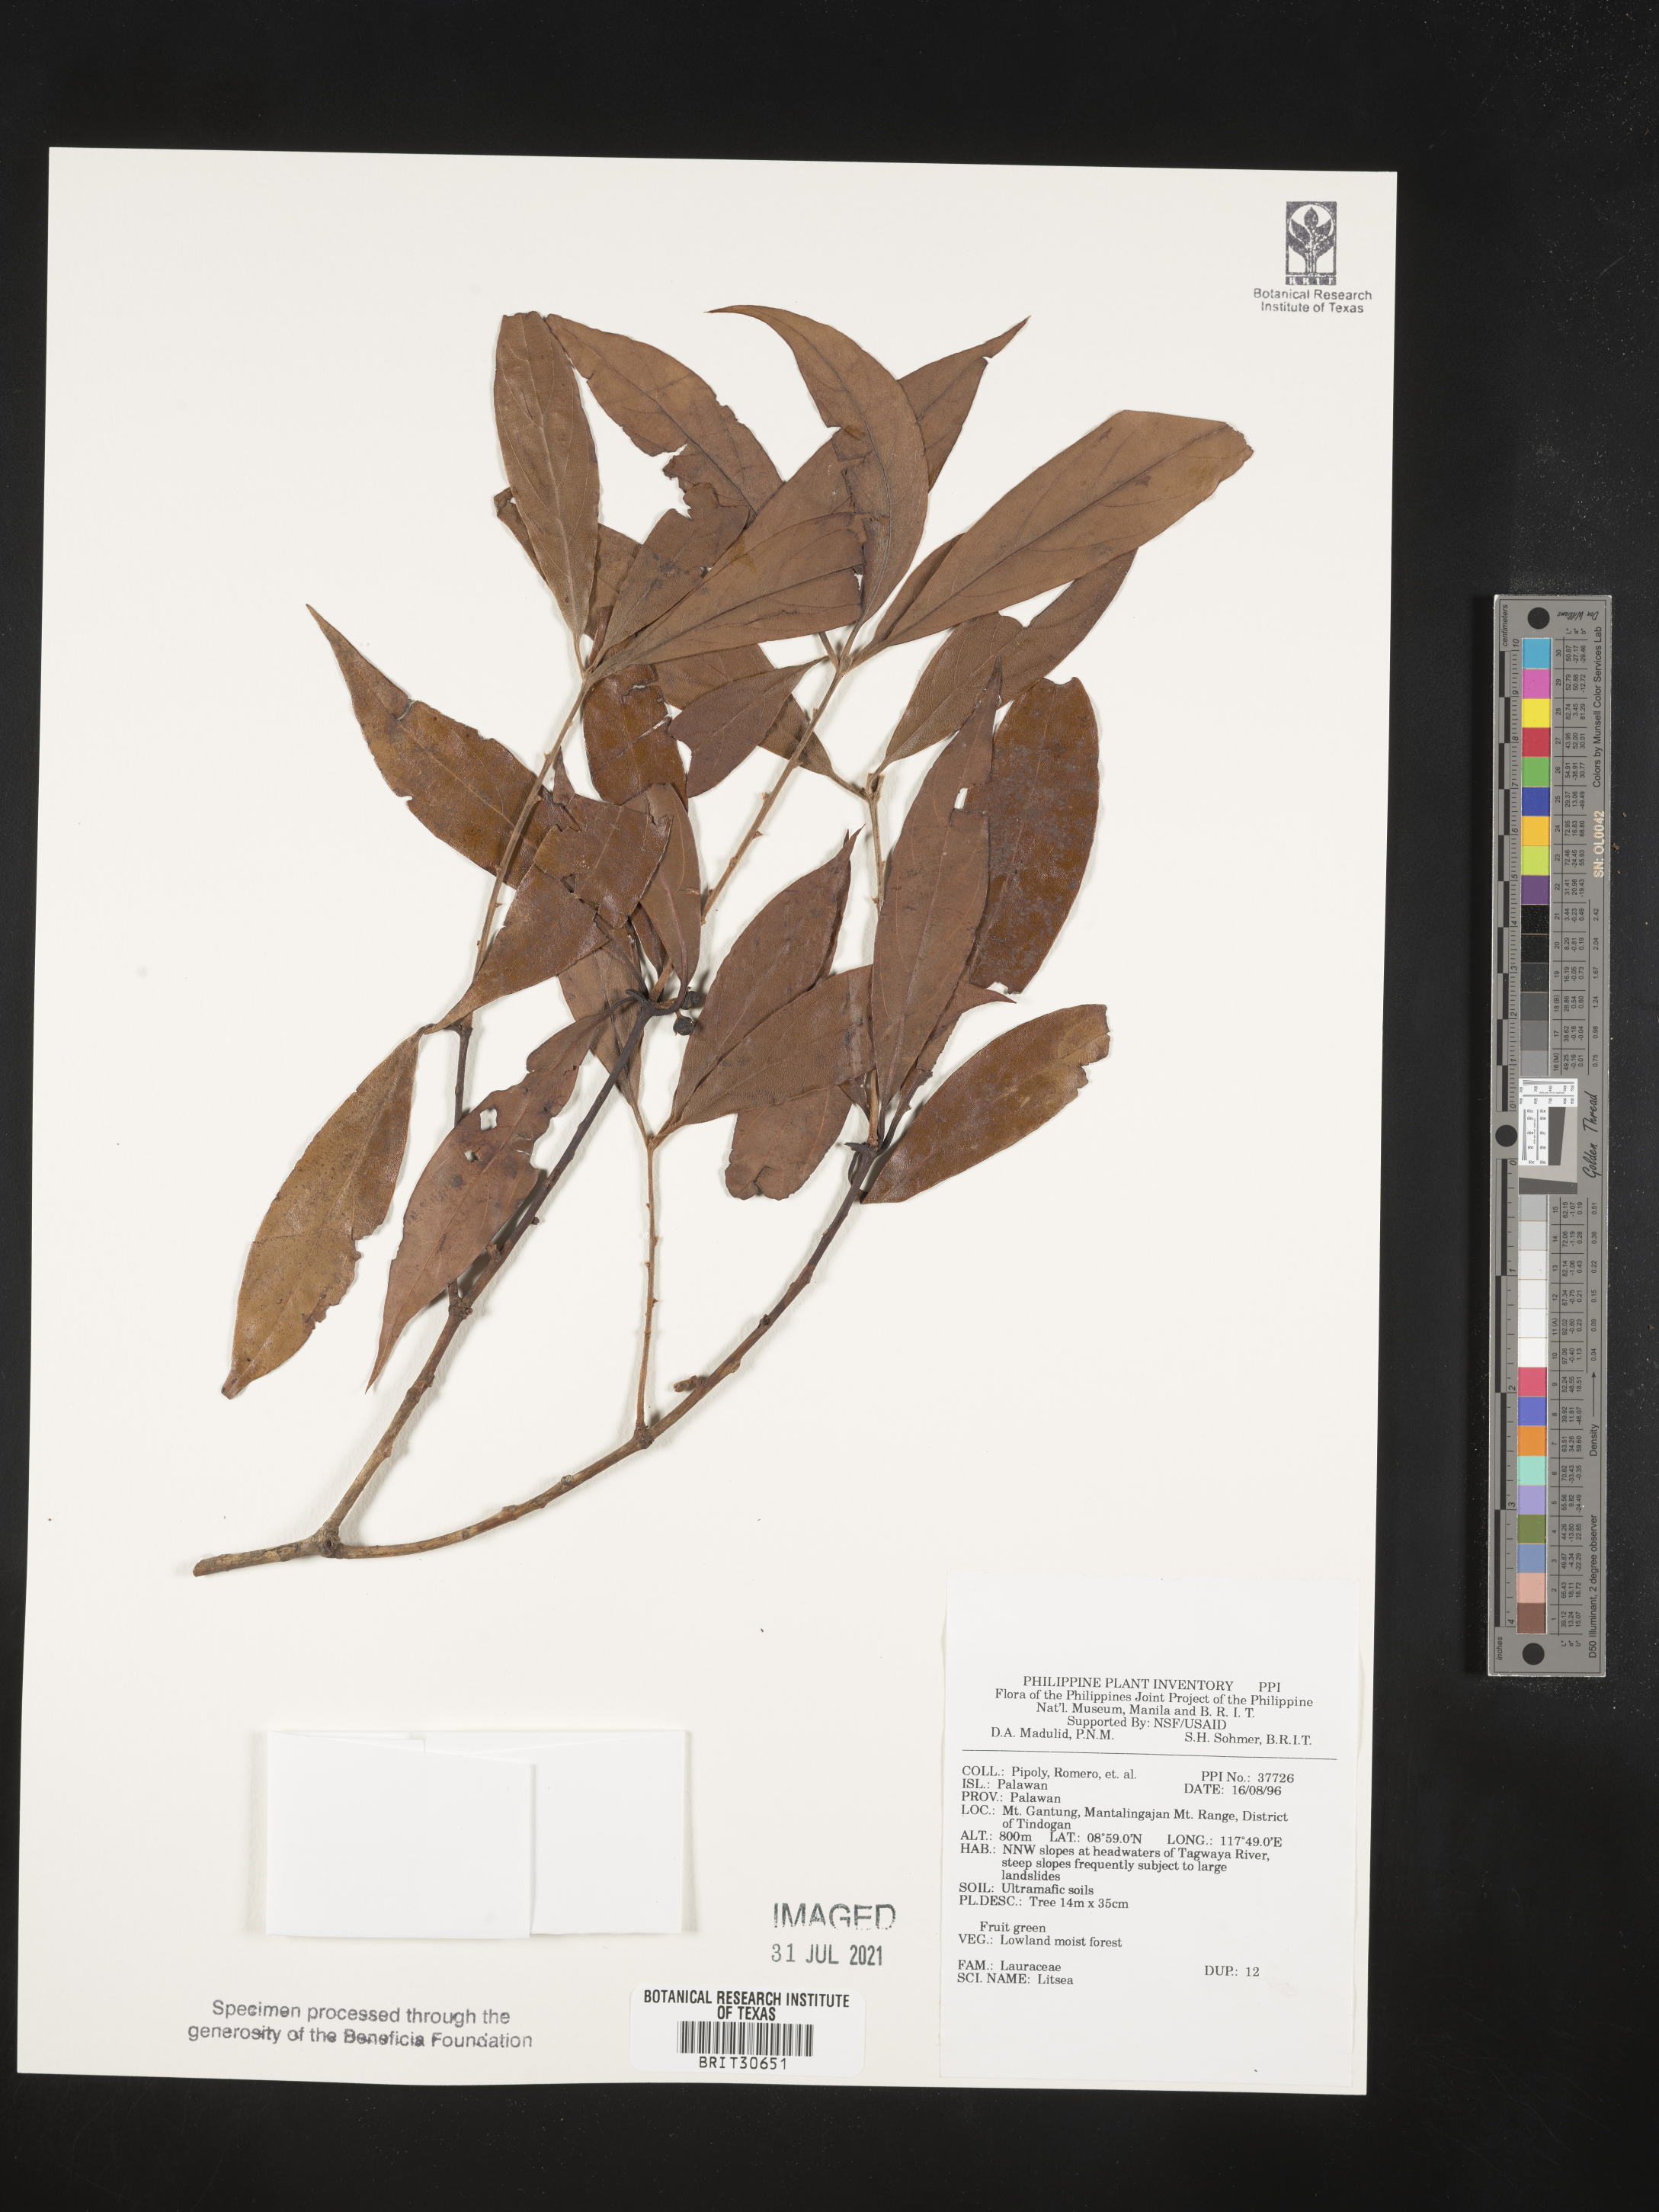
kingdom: Plantae
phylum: Tracheophyta
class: Magnoliopsida
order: Laurales
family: Lauraceae
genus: Litsea
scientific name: Litsea
